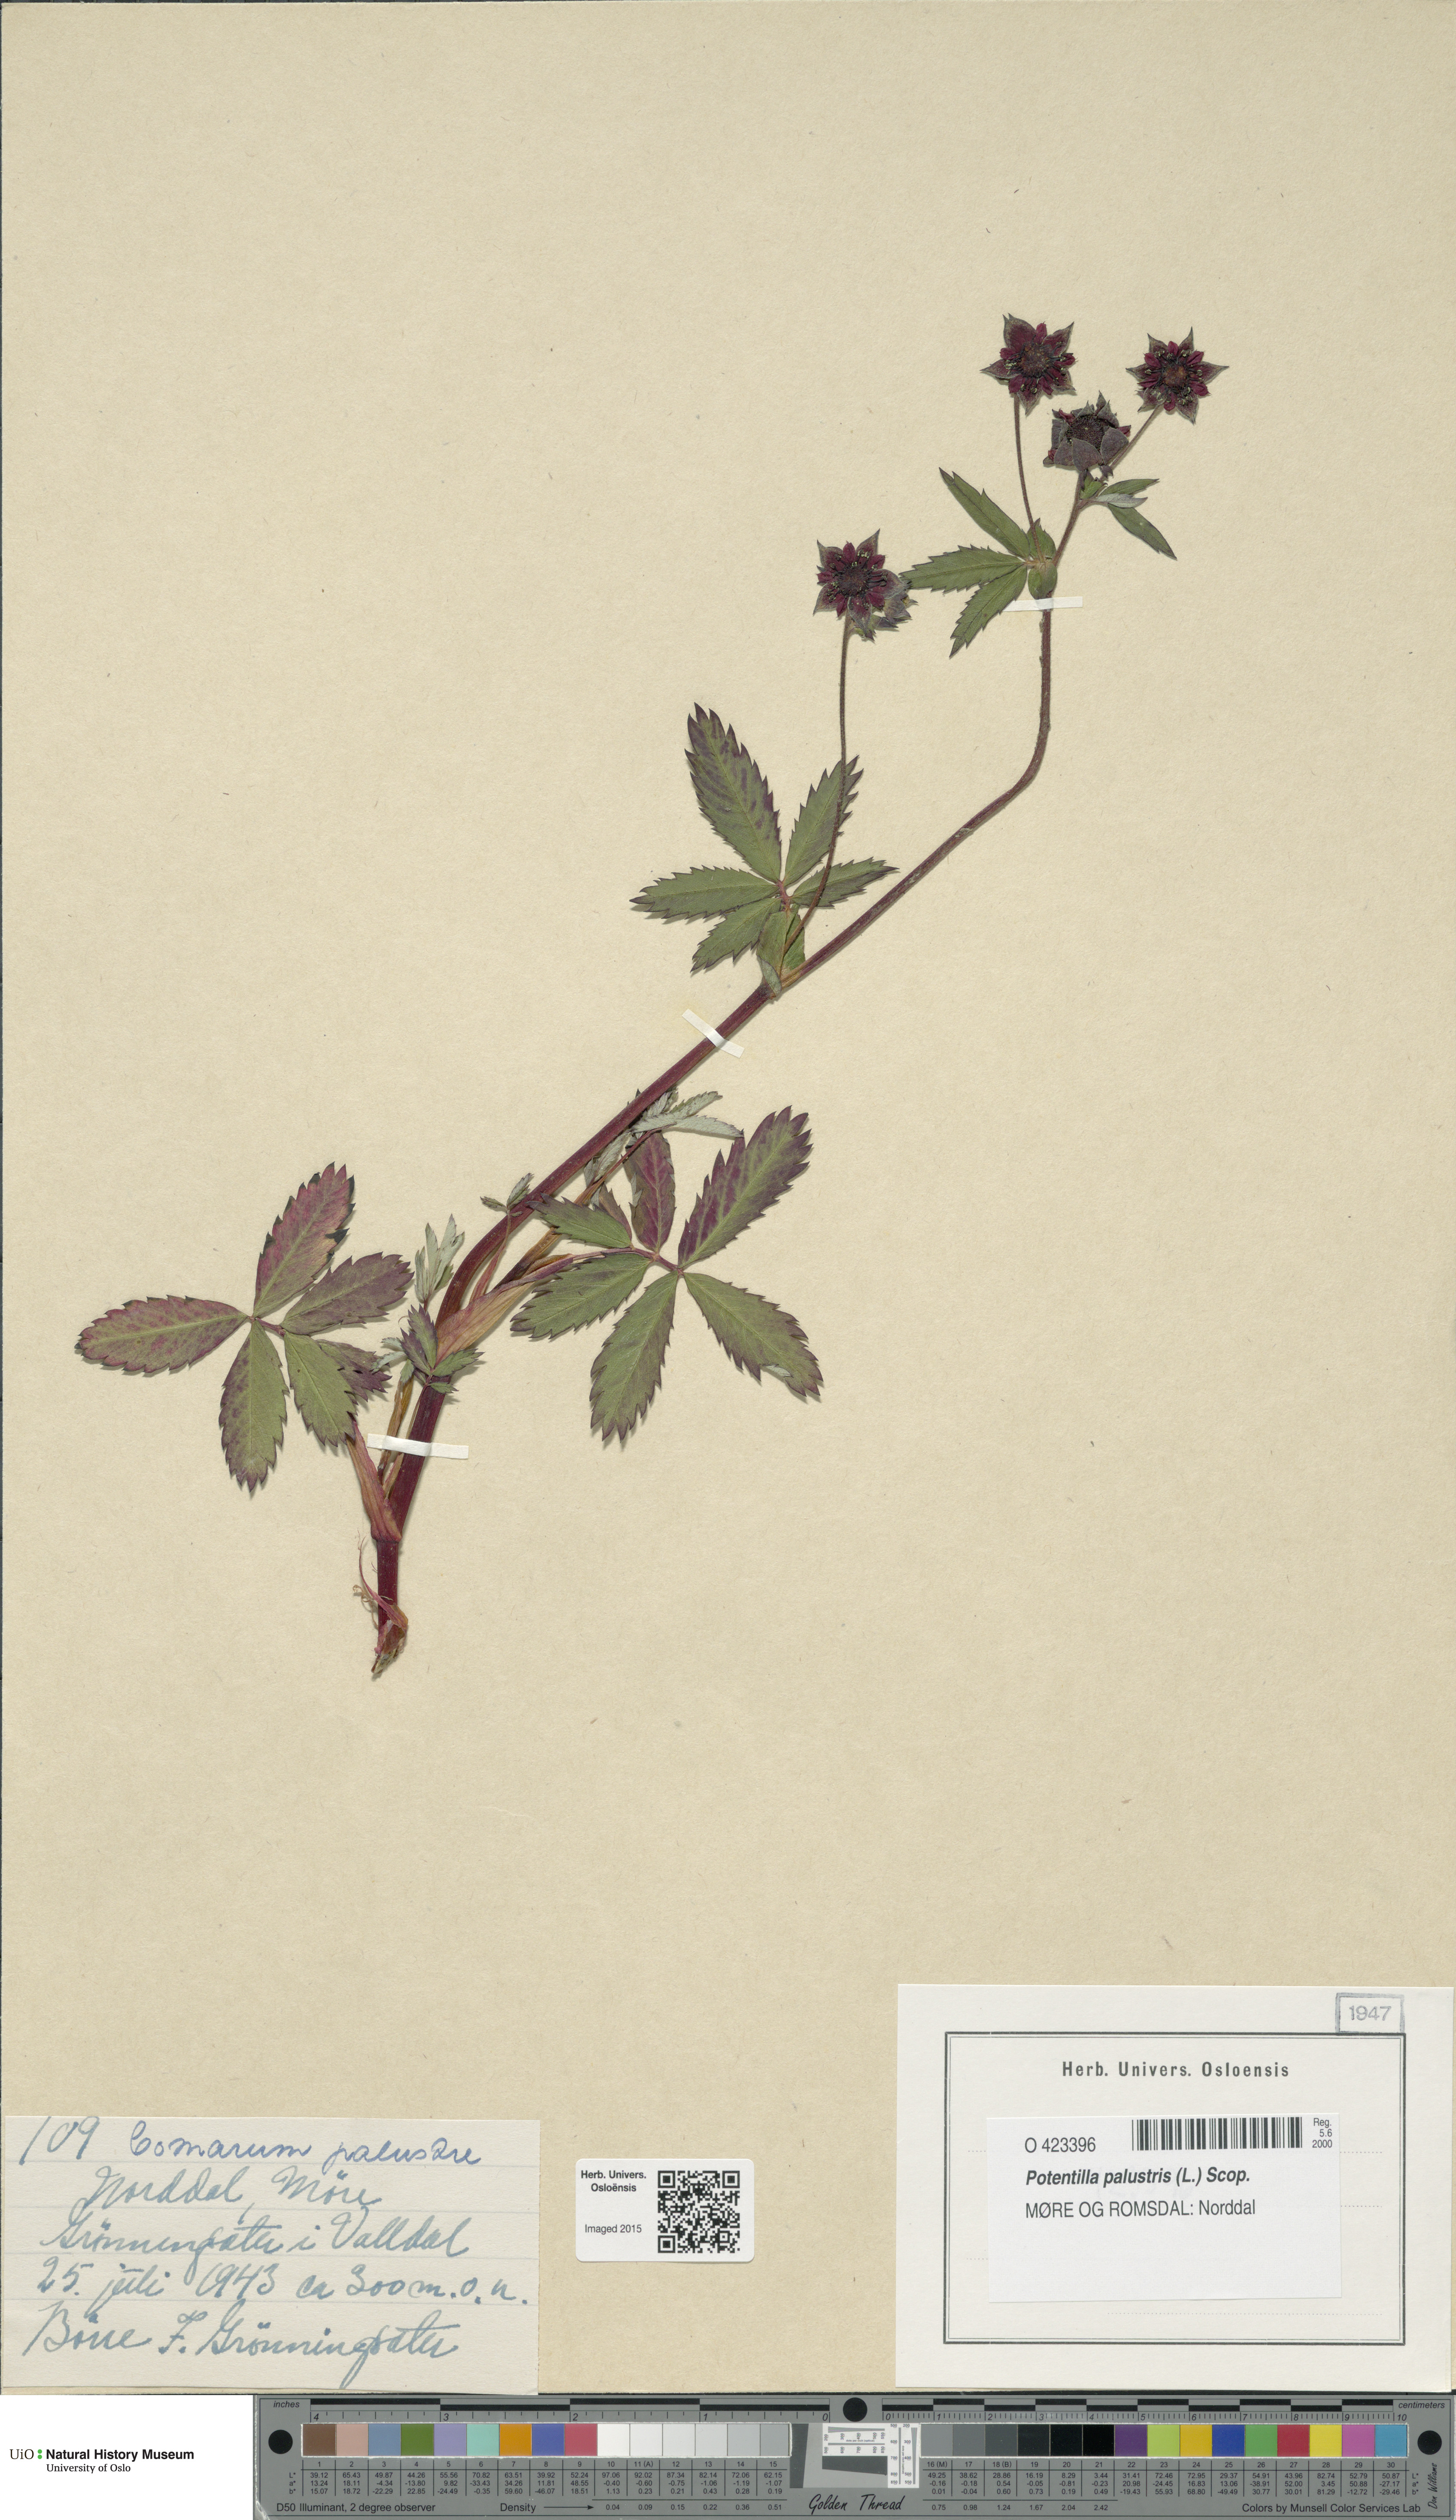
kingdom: Plantae
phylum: Tracheophyta
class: Magnoliopsida
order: Rosales
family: Rosaceae
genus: Comarum
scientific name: Comarum palustre
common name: Marsh cinquefoil
